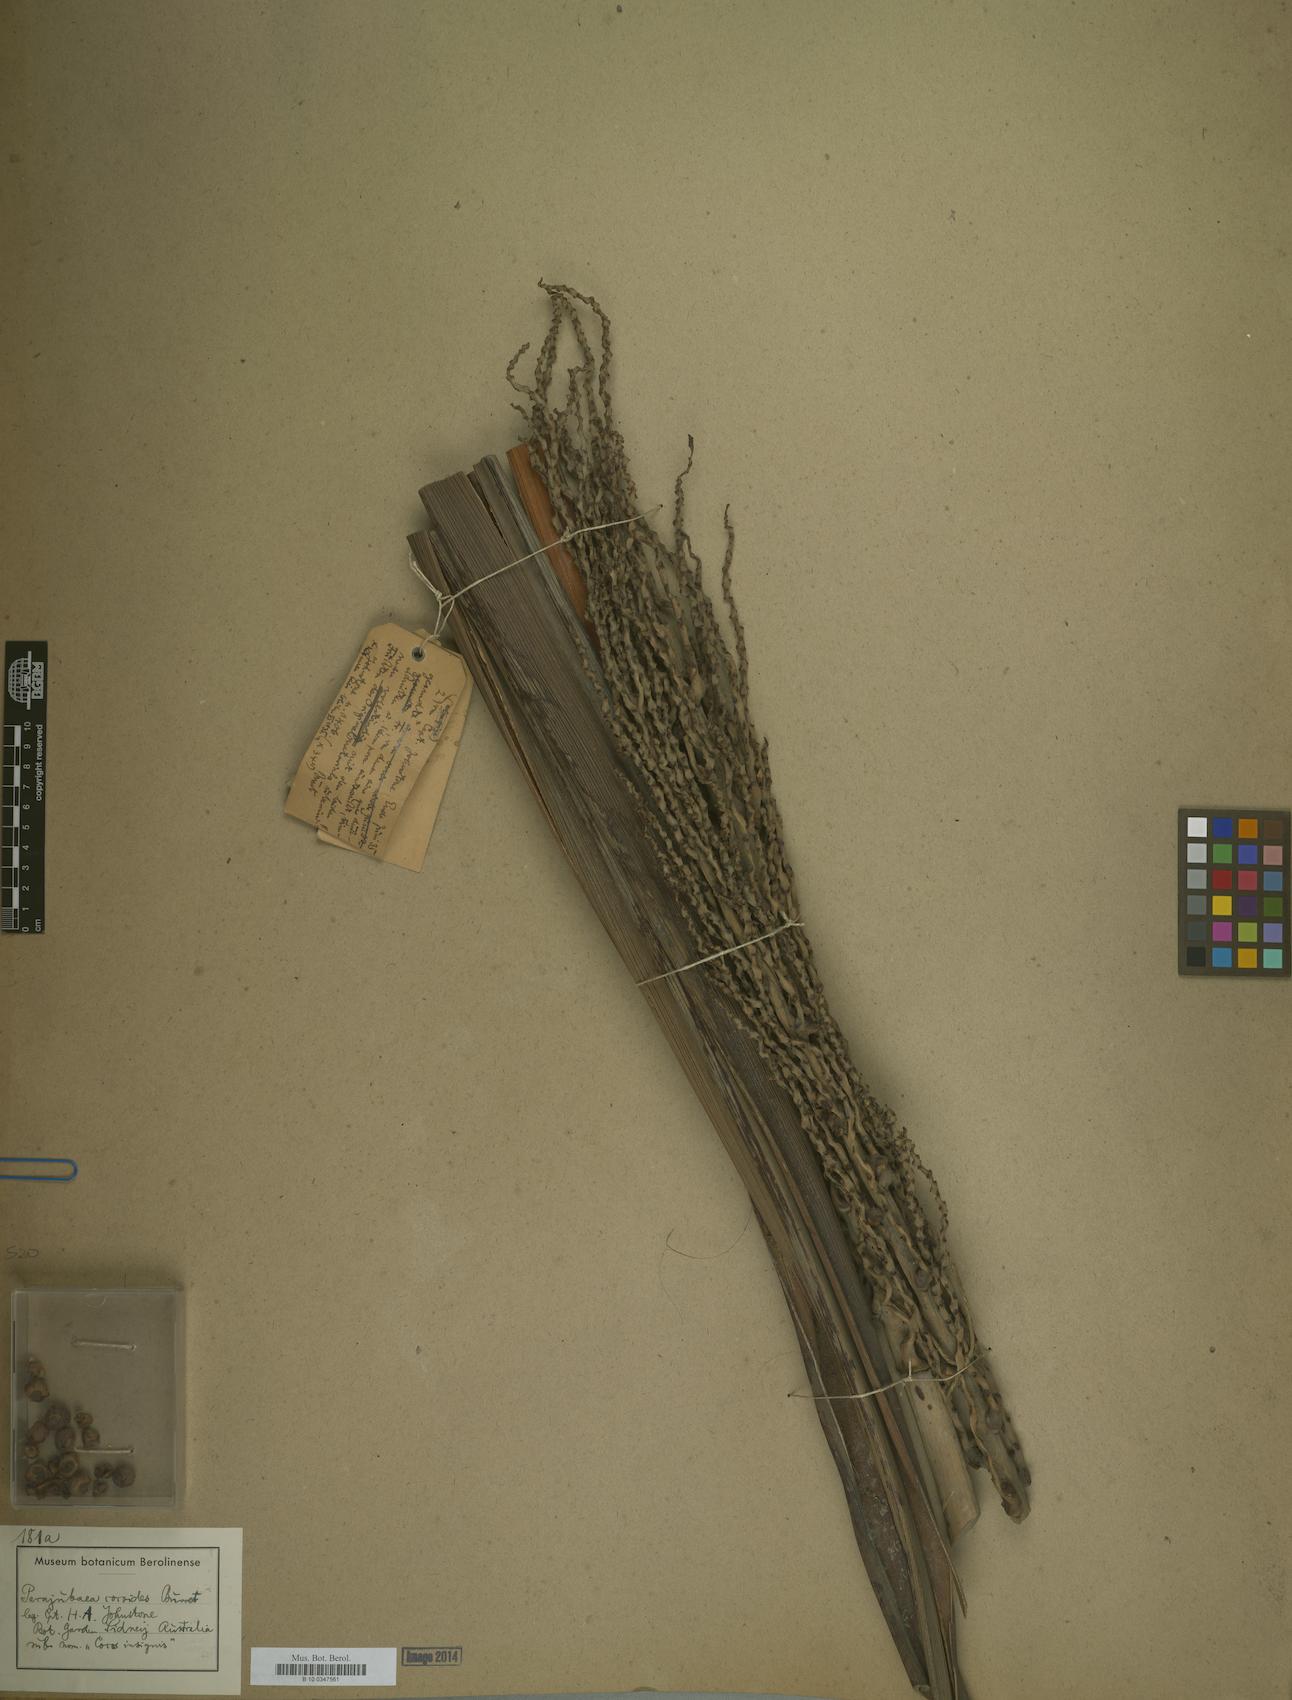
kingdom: Plantae
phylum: Tracheophyta
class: Liliopsida
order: Arecales
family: Arecaceae
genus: Parajubaea
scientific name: Parajubaea cocoides
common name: Quito palm
